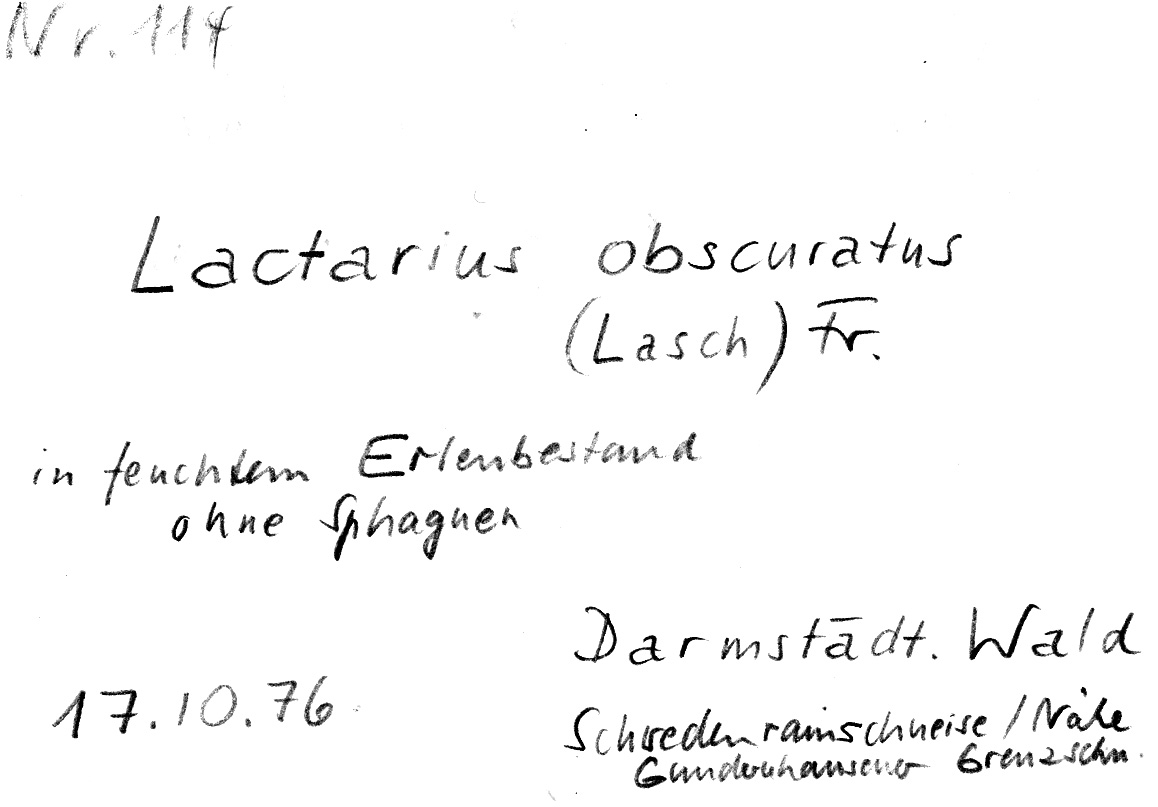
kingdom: Fungi
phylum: Basidiomycota
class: Agaricomycetes
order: Russulales
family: Russulaceae
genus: Lactarius
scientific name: Lactarius obscuratus
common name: Alder milkcap
